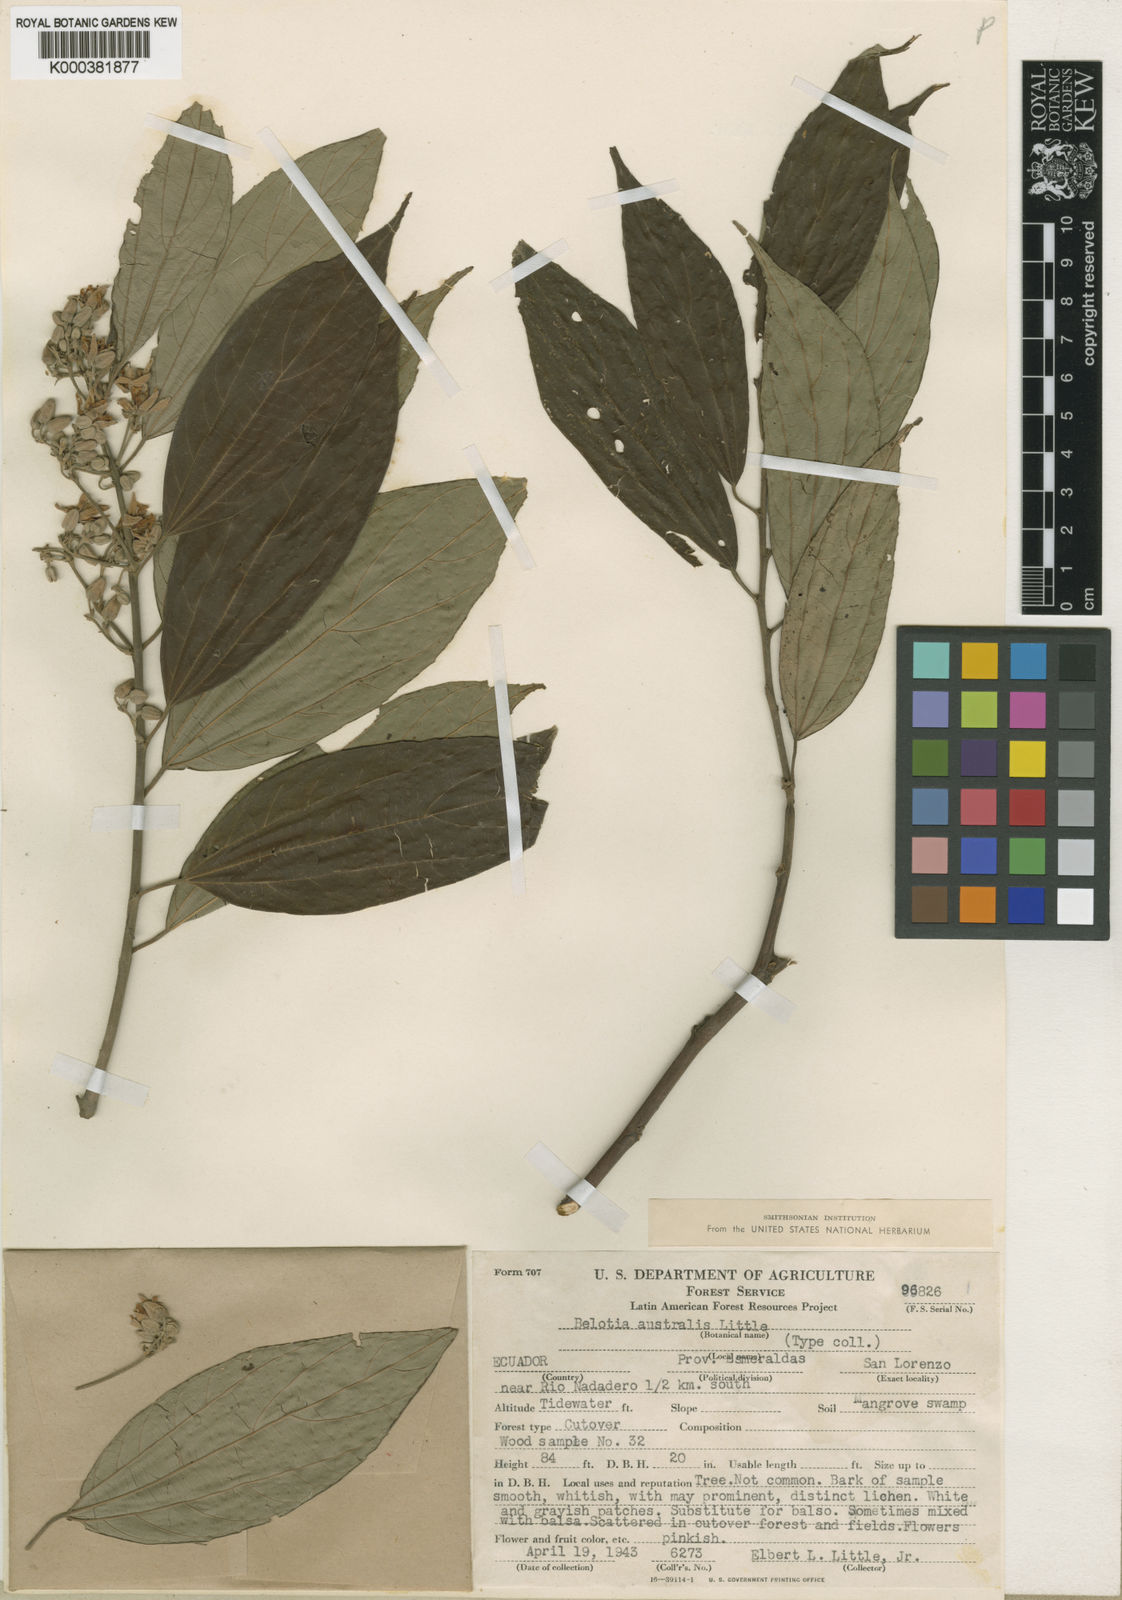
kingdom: Plantae
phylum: Tracheophyta
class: Magnoliopsida
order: Malvales
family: Malvaceae
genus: Trichospermum
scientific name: Trichospermum mexicanum
